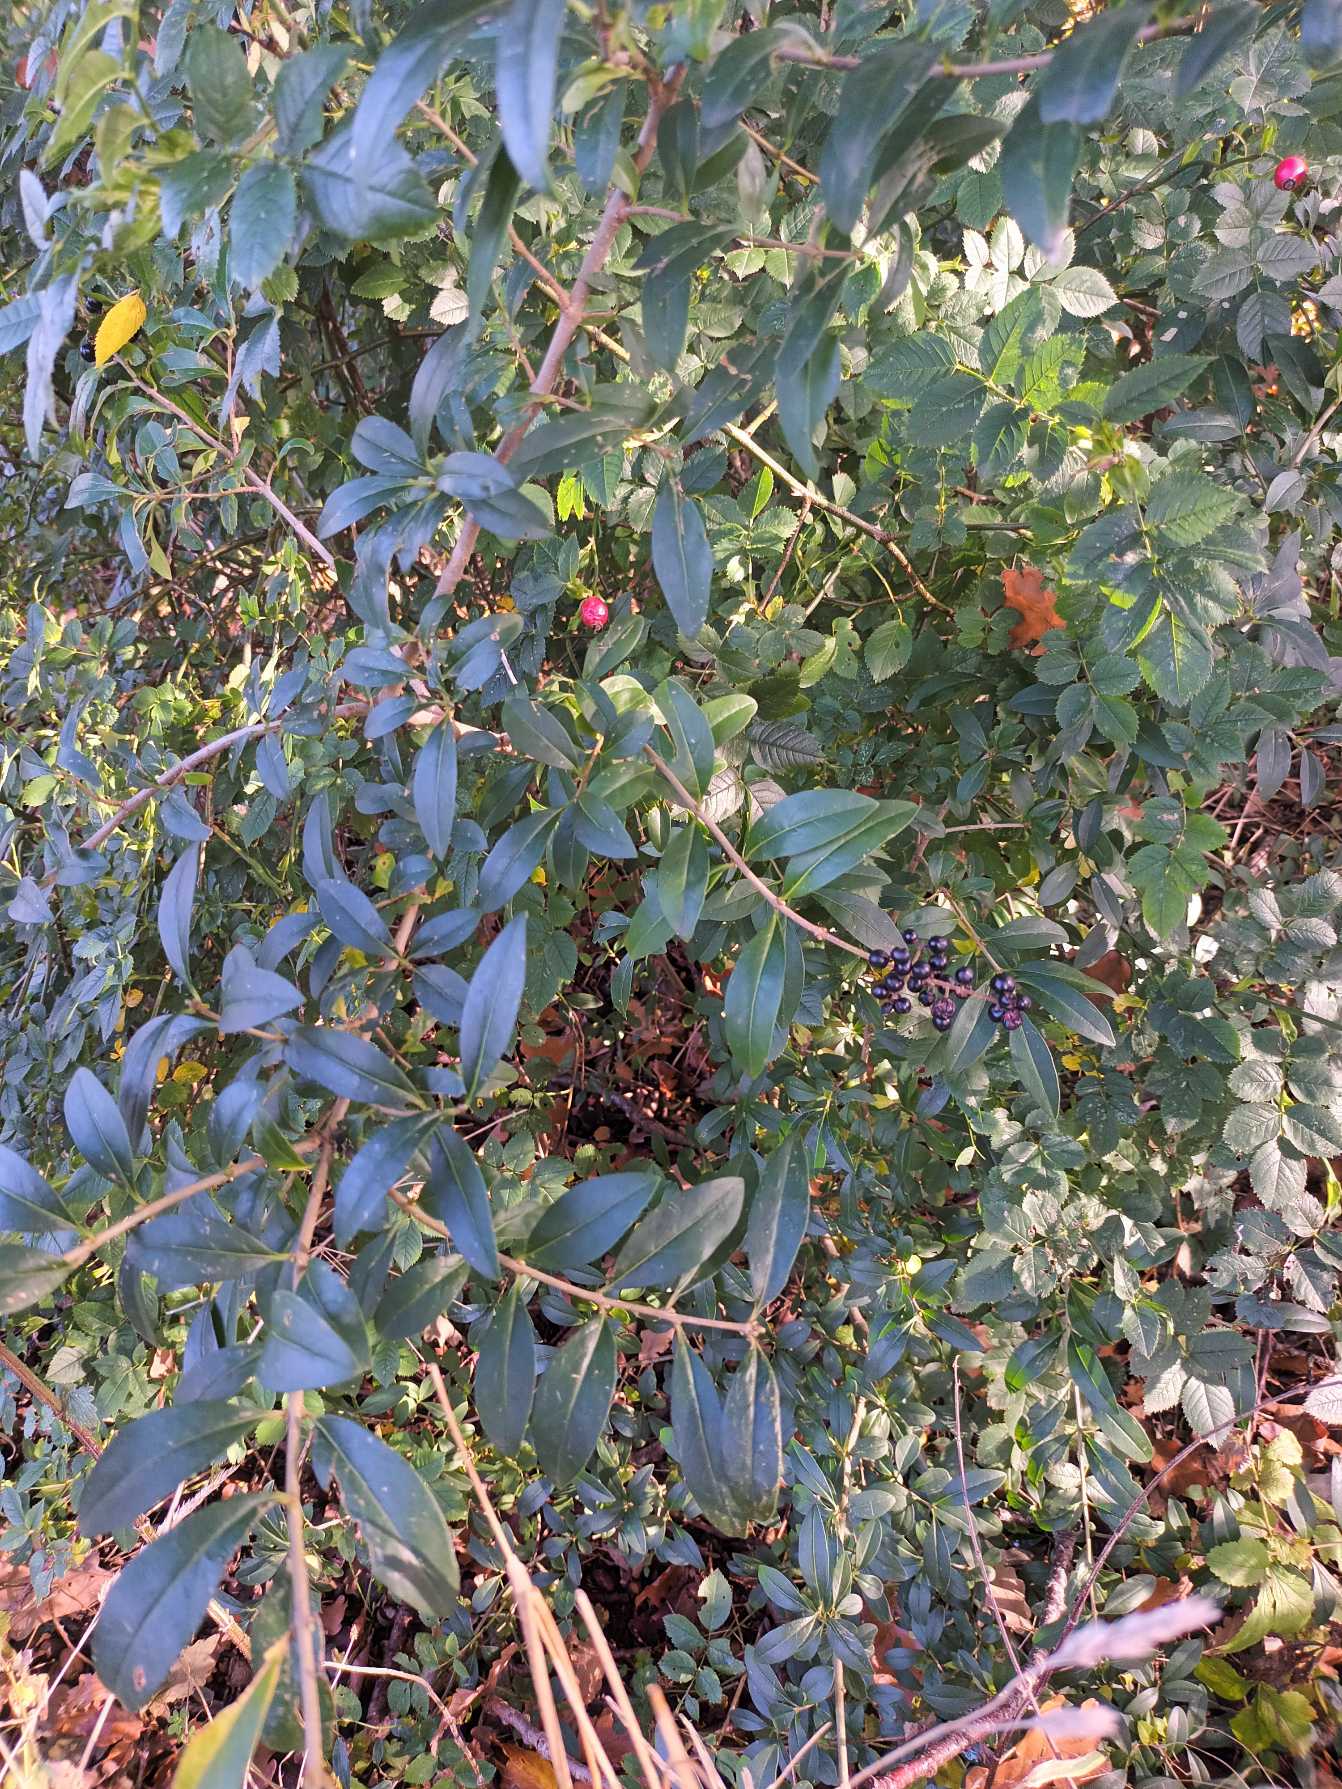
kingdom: Plantae
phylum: Tracheophyta
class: Magnoliopsida
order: Lamiales
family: Oleaceae
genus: Ligustrum
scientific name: Ligustrum vulgare
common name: Liguster
